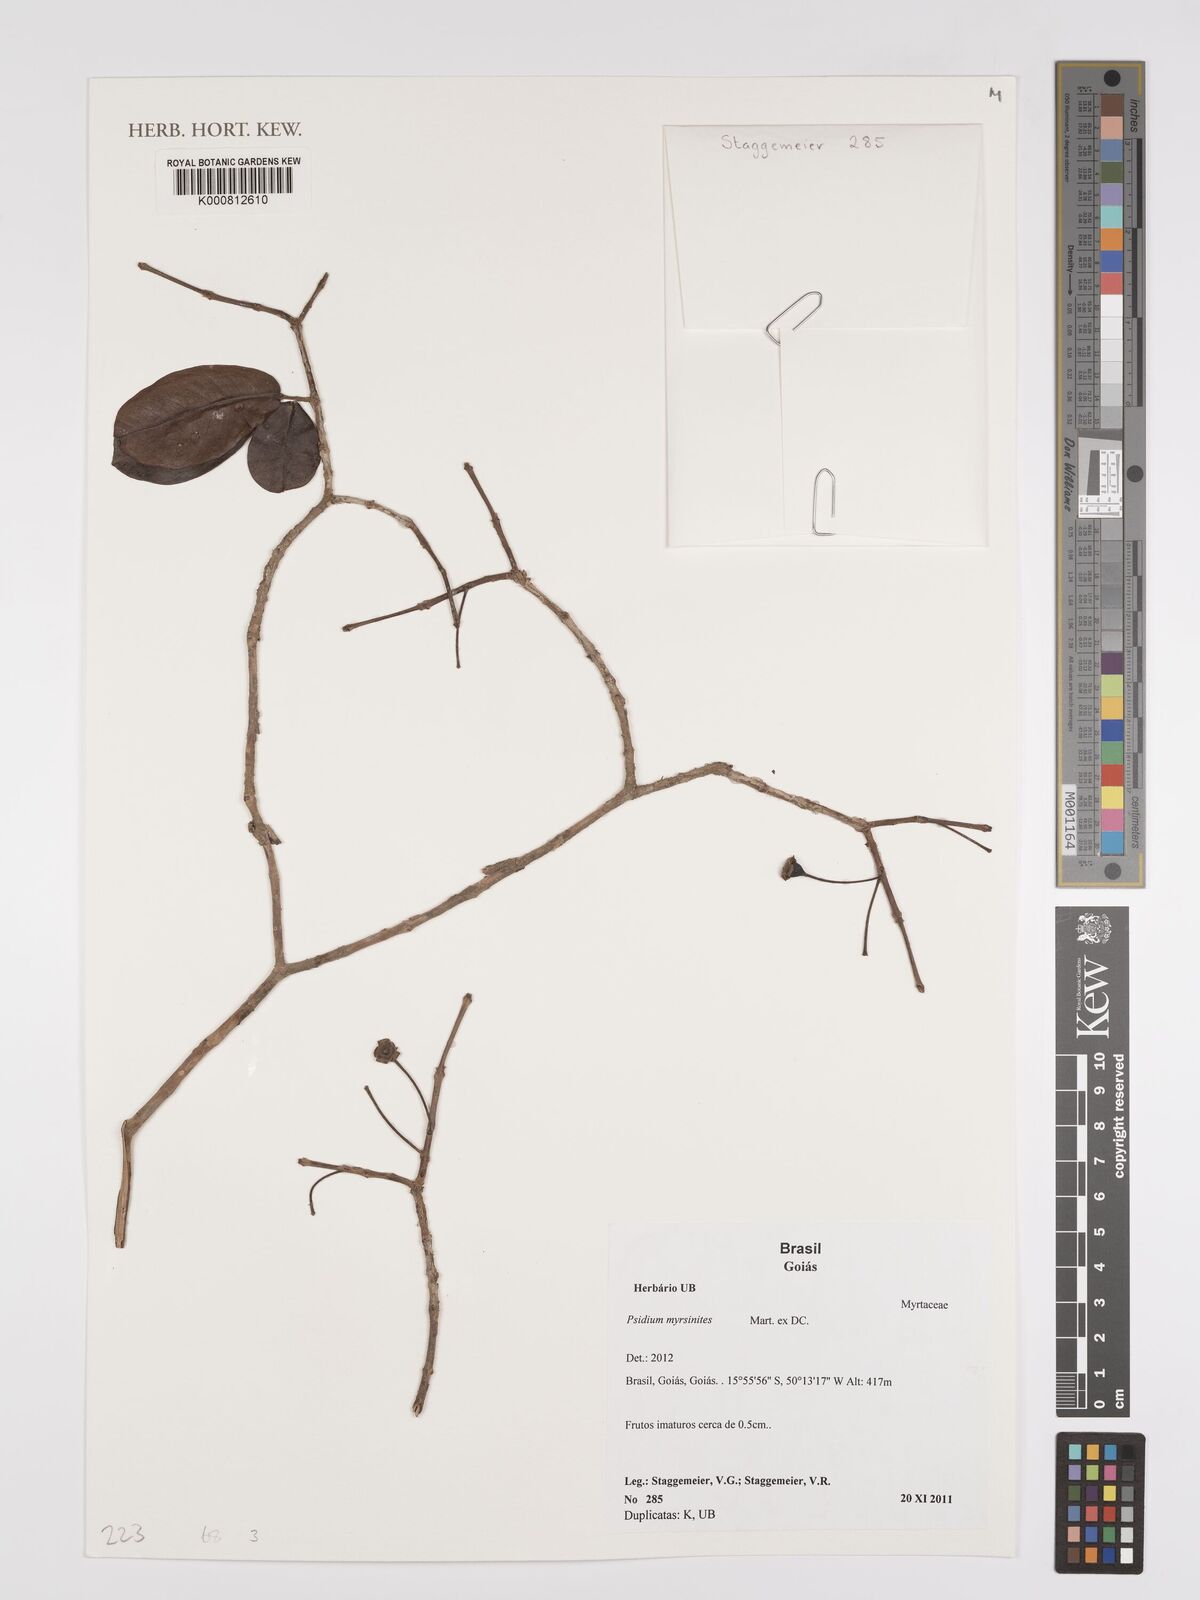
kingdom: Plantae
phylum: Tracheophyta
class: Magnoliopsida
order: Myrtales
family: Myrtaceae
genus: Psidium
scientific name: Psidium myrsinites
